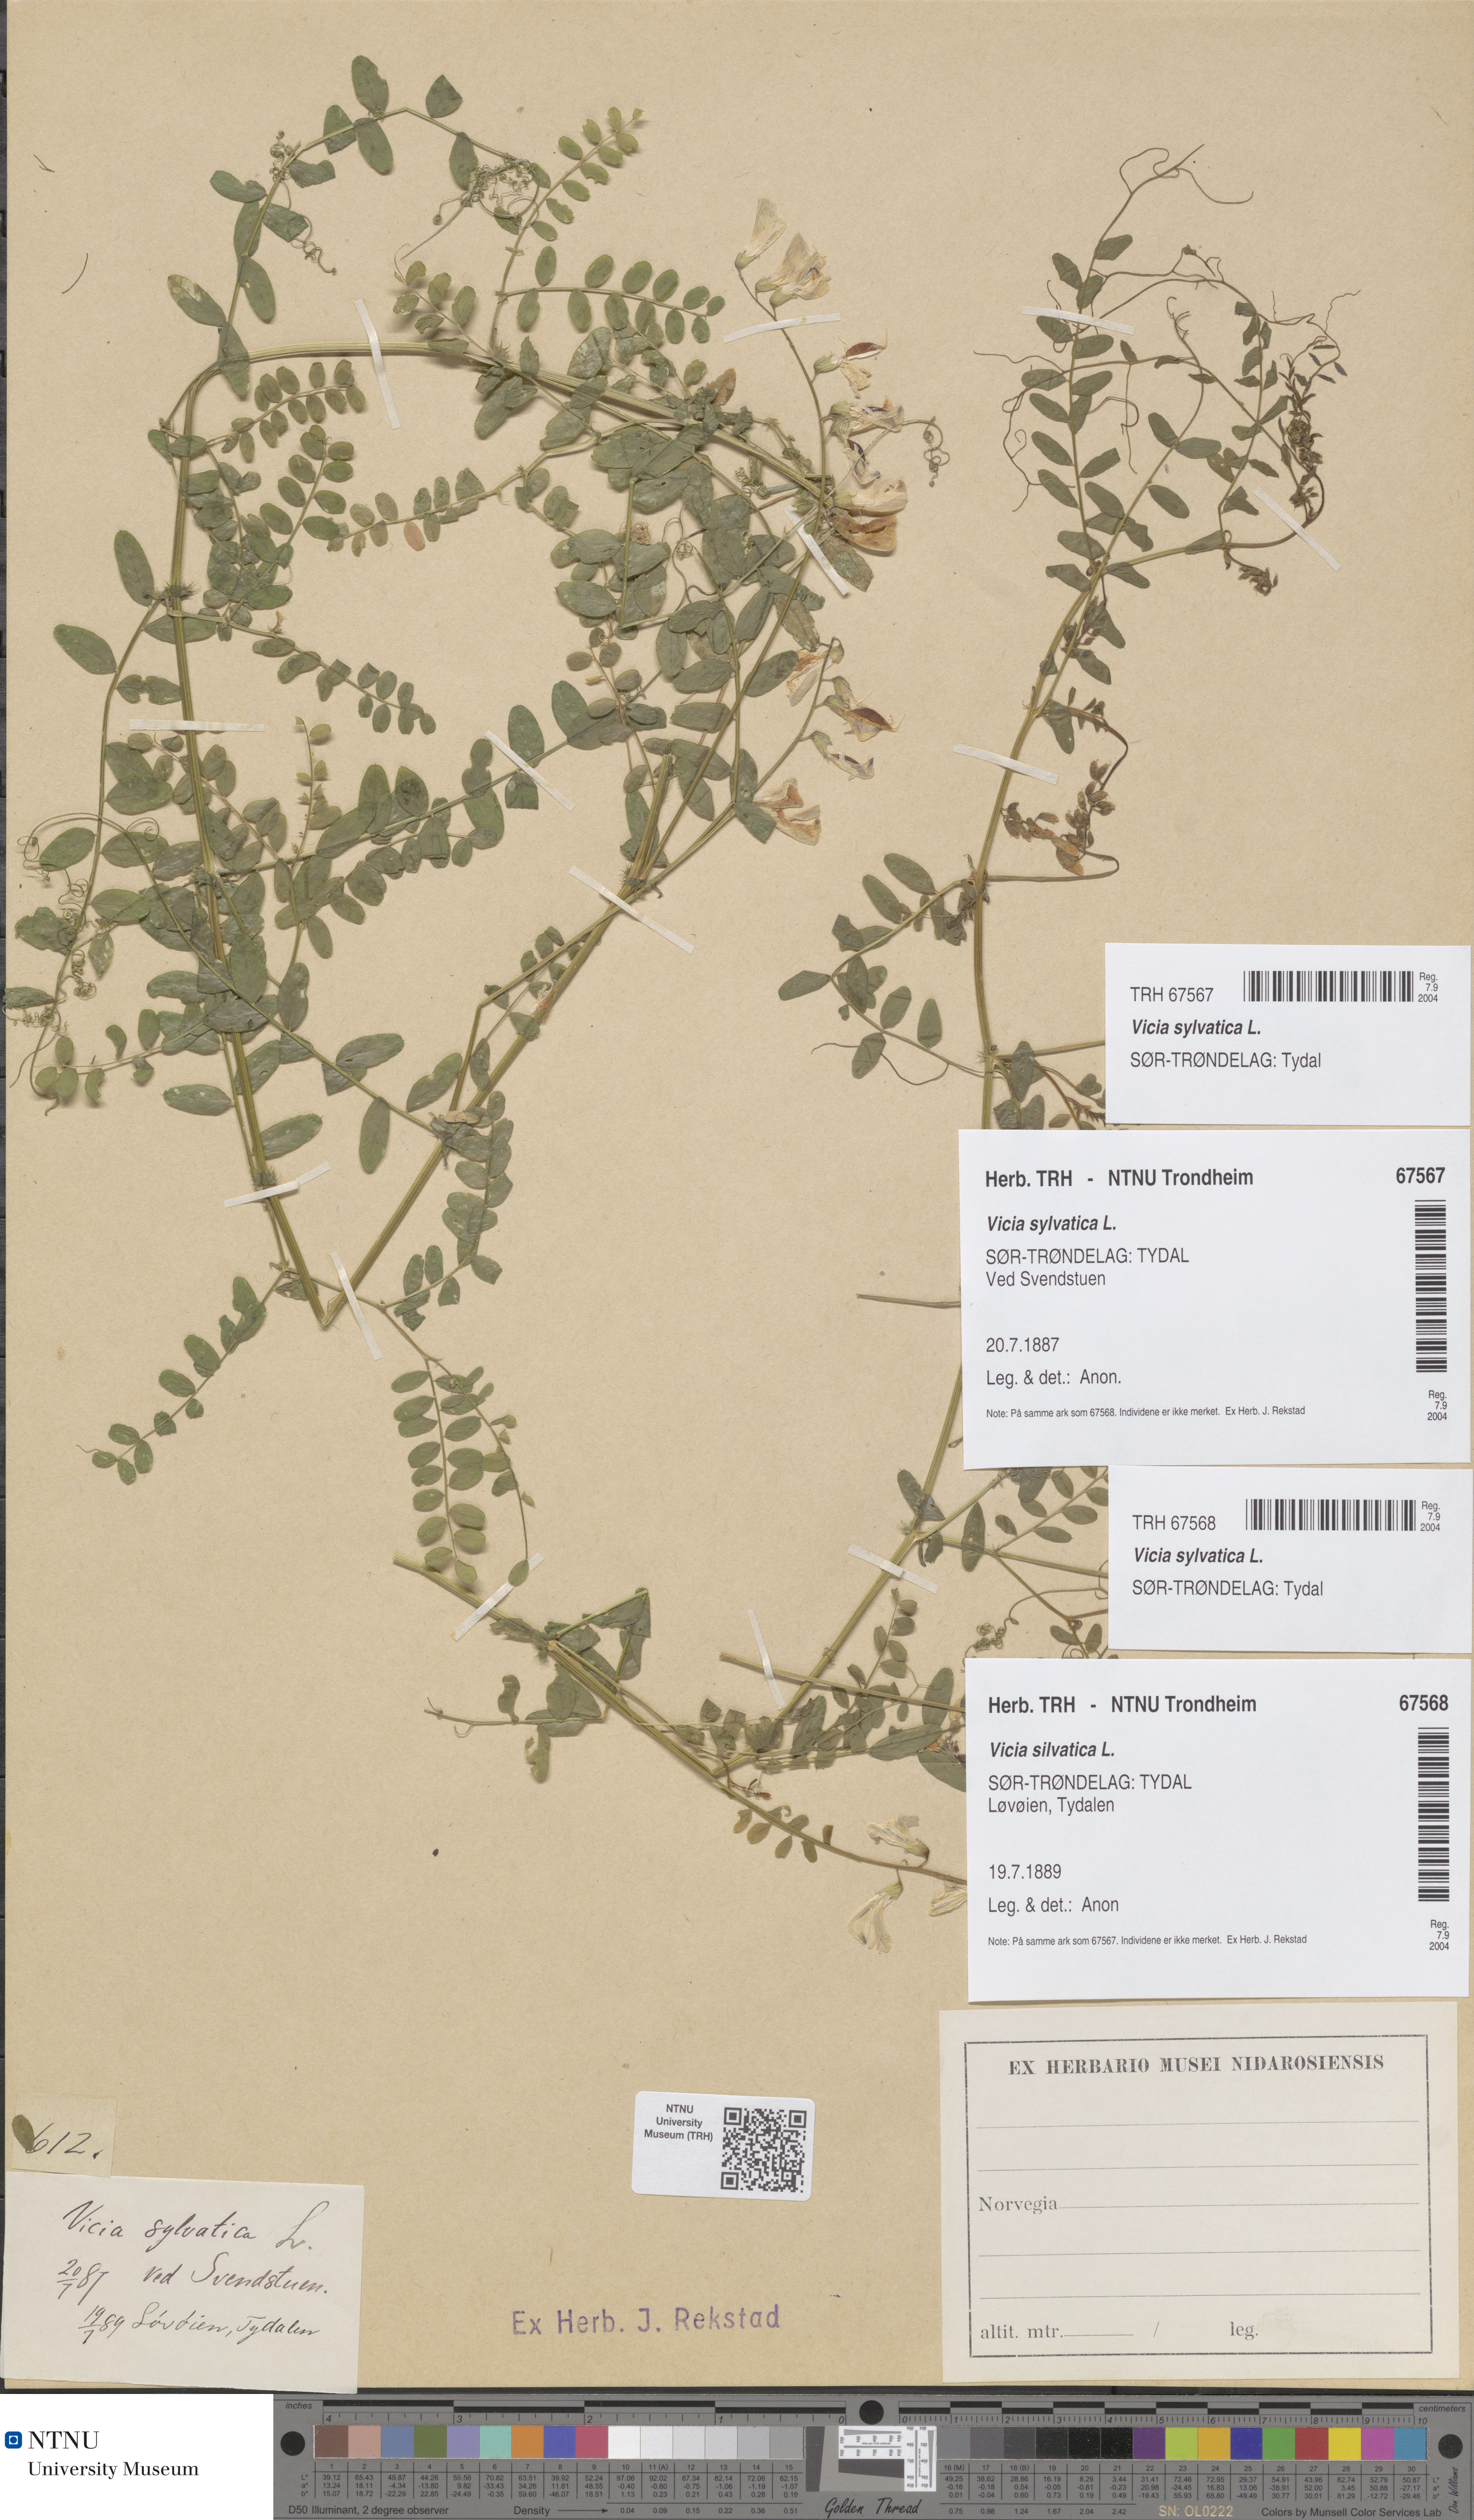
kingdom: Plantae
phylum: Tracheophyta
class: Magnoliopsida
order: Fabales
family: Fabaceae
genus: Vicia
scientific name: Vicia sylvatica
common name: Wood vetch
